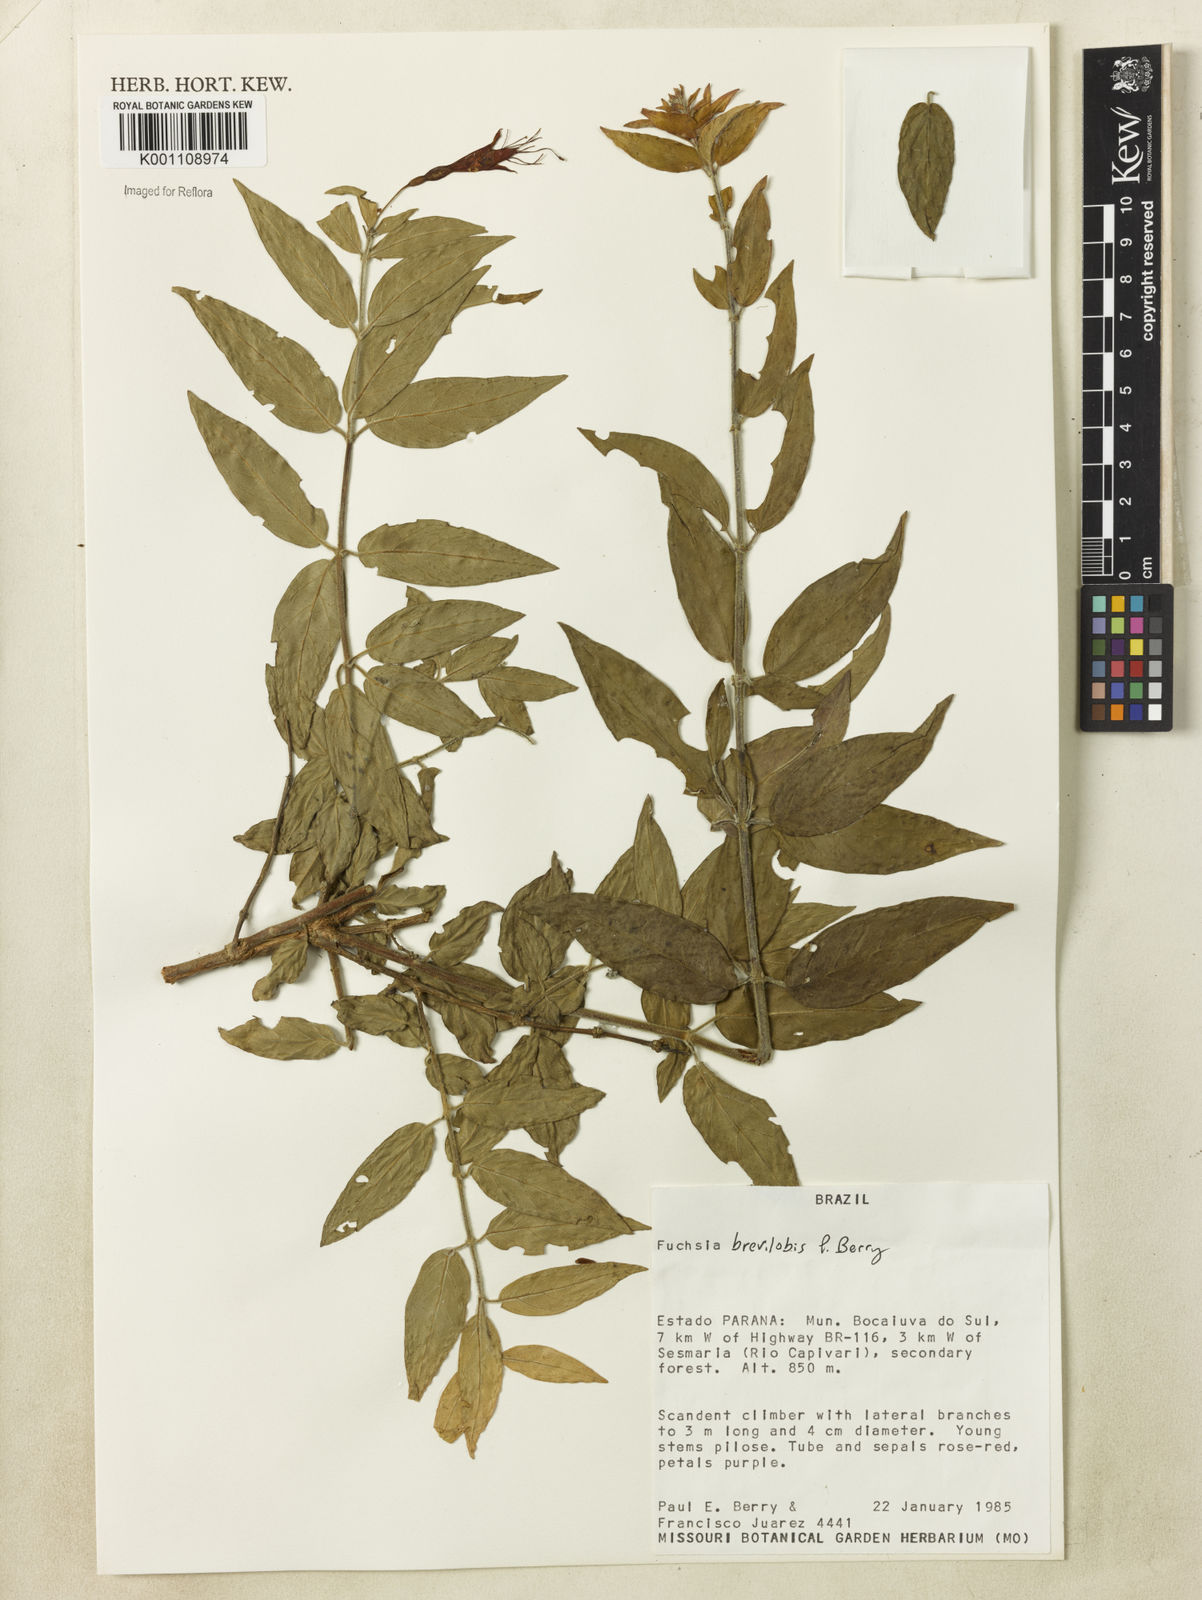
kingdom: Plantae
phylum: Tracheophyta
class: Magnoliopsida
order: Myrtales
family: Onagraceae
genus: Fuchsia
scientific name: Fuchsia brevilobis
